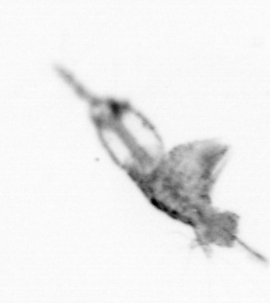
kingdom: Animalia
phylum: Arthropoda
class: Copepoda
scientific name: Copepoda
